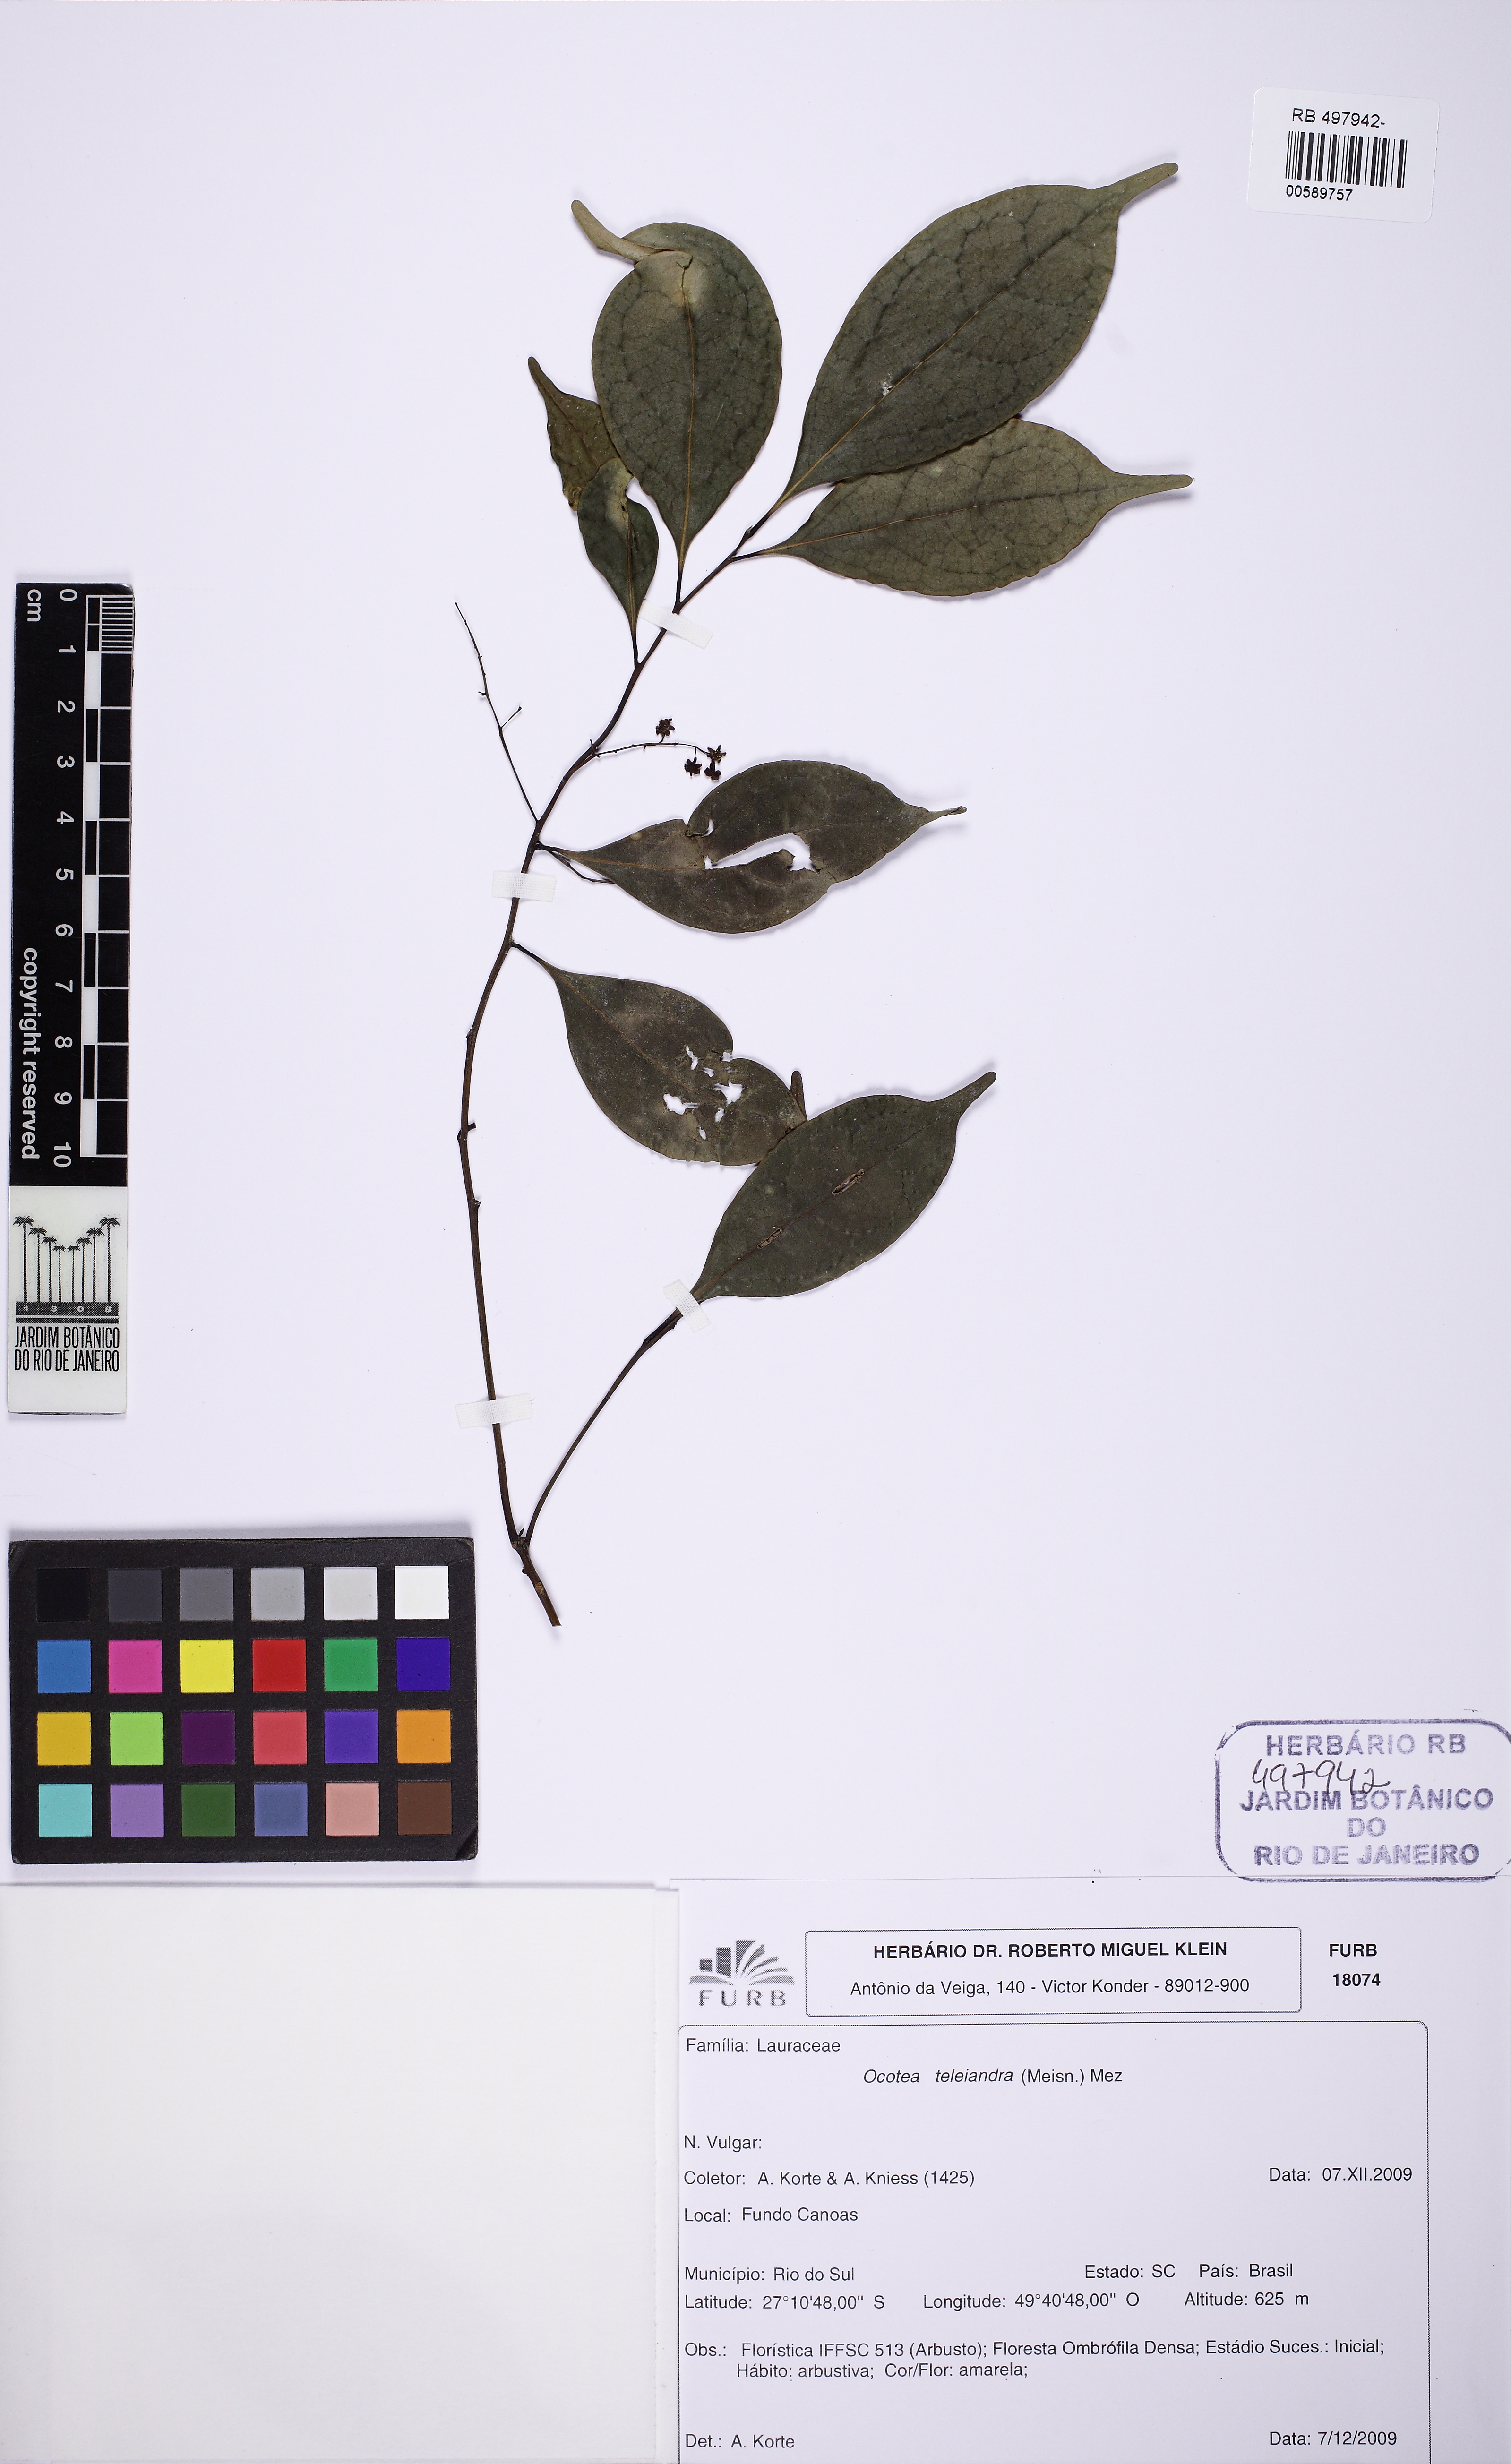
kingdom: Plantae
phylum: Tracheophyta
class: Magnoliopsida
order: Laurales
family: Lauraceae
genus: Ocotea
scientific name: Ocotea teleiandra
